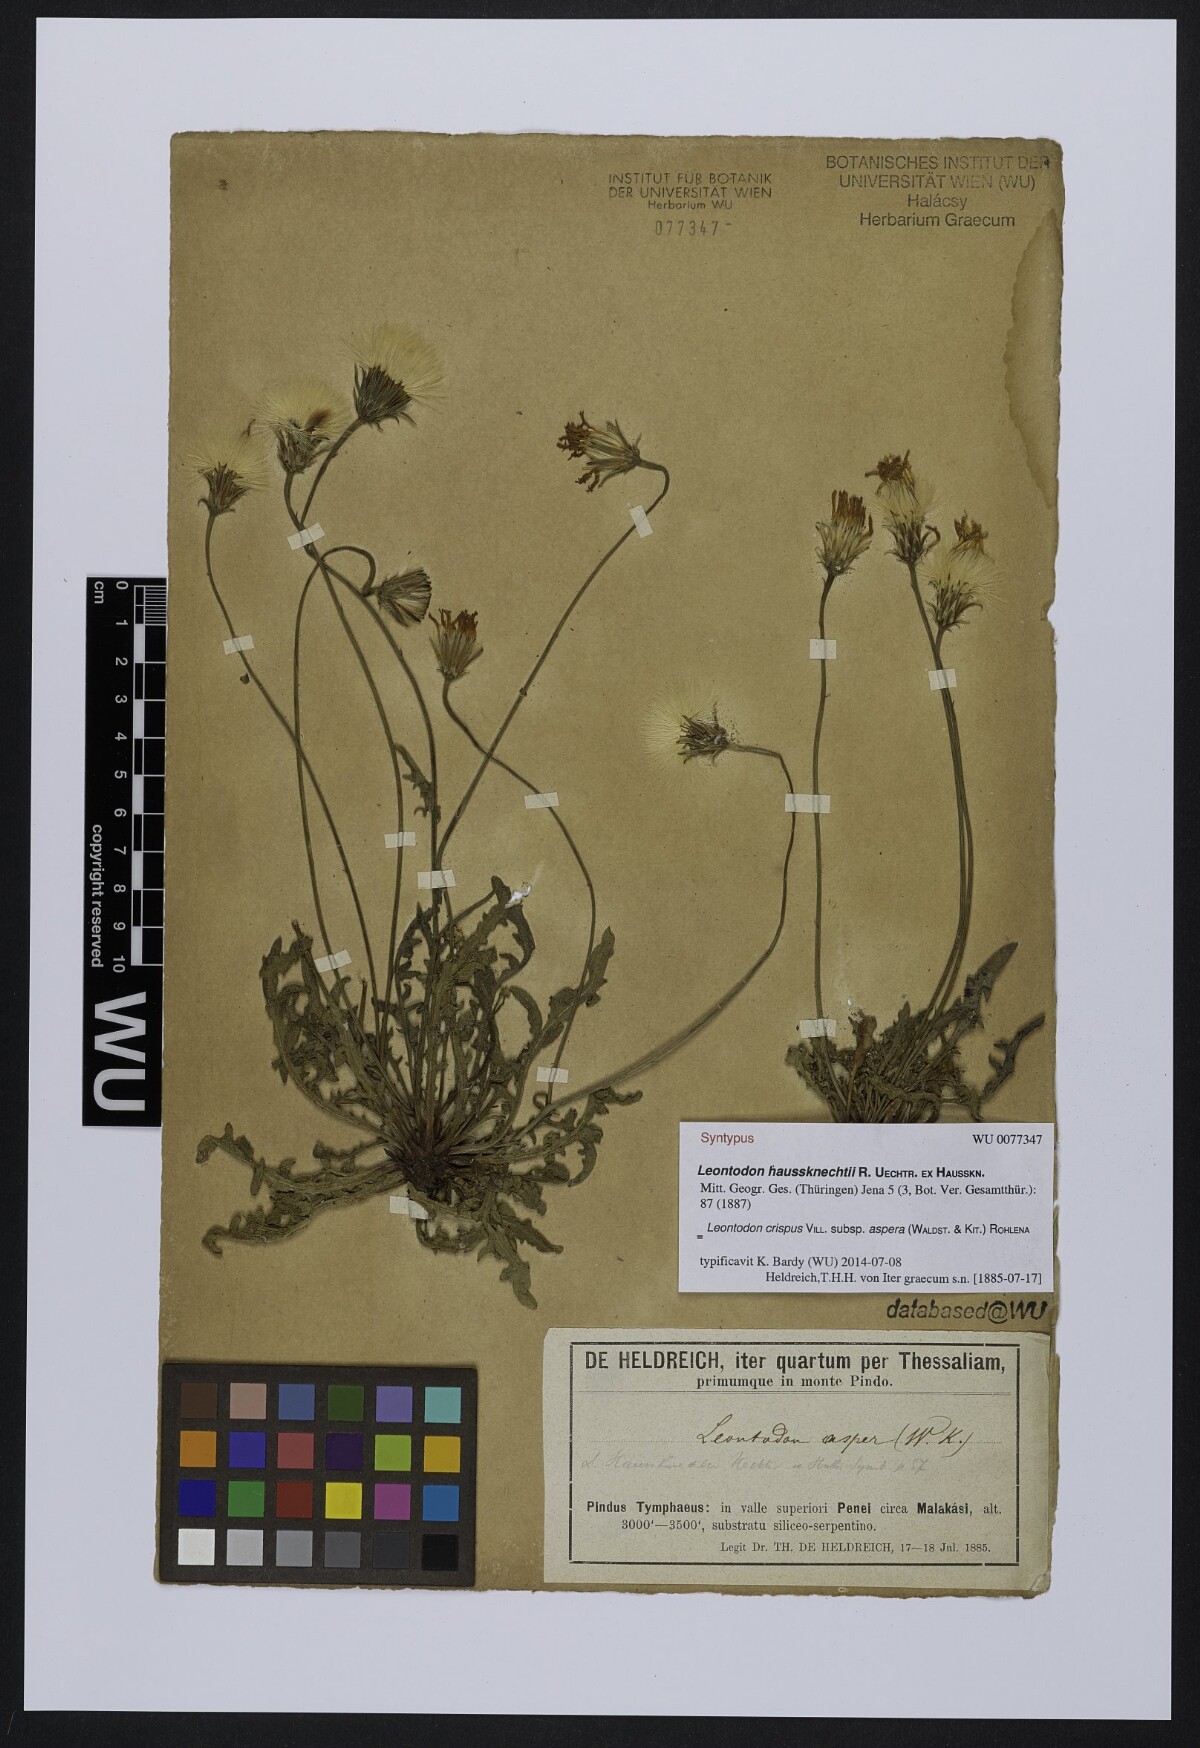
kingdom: Plantae
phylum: Tracheophyta
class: Magnoliopsida
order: Asterales
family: Asteraceae
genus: Leontodon
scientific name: Leontodon biscutellifolius
